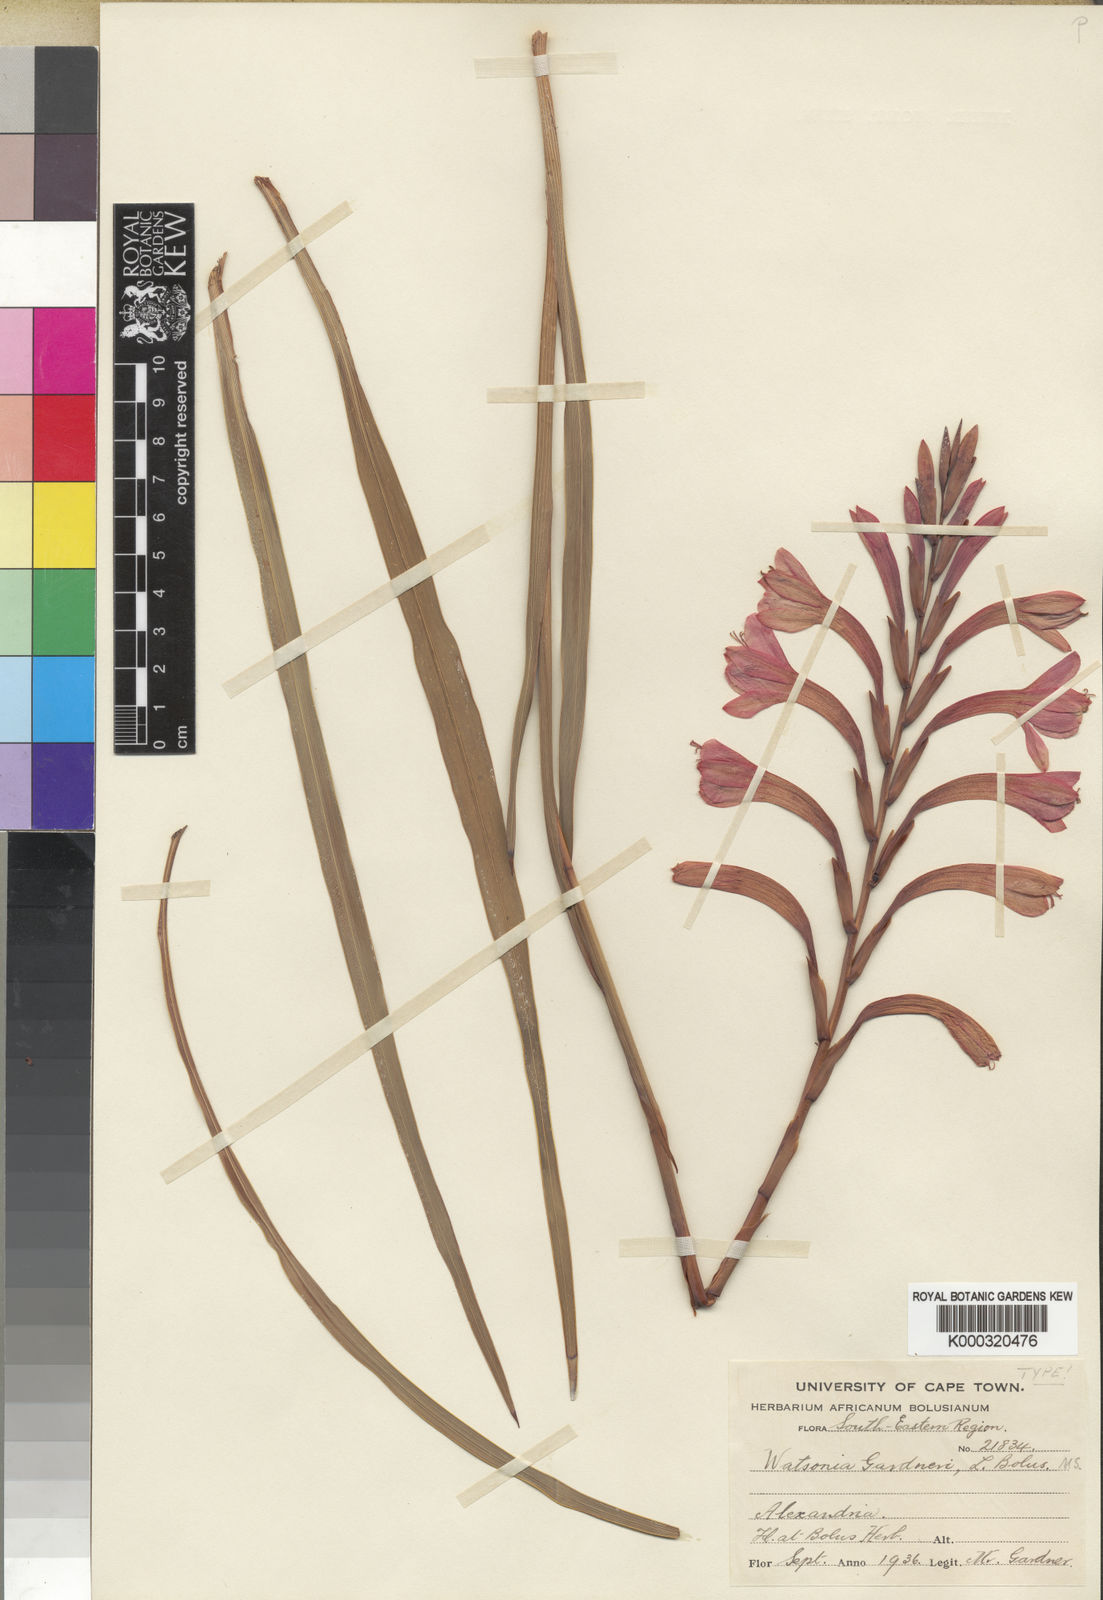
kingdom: Plantae
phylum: Tracheophyta
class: Liliopsida
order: Asparagales
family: Iridaceae
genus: Watsonia
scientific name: Watsonia pillansii
